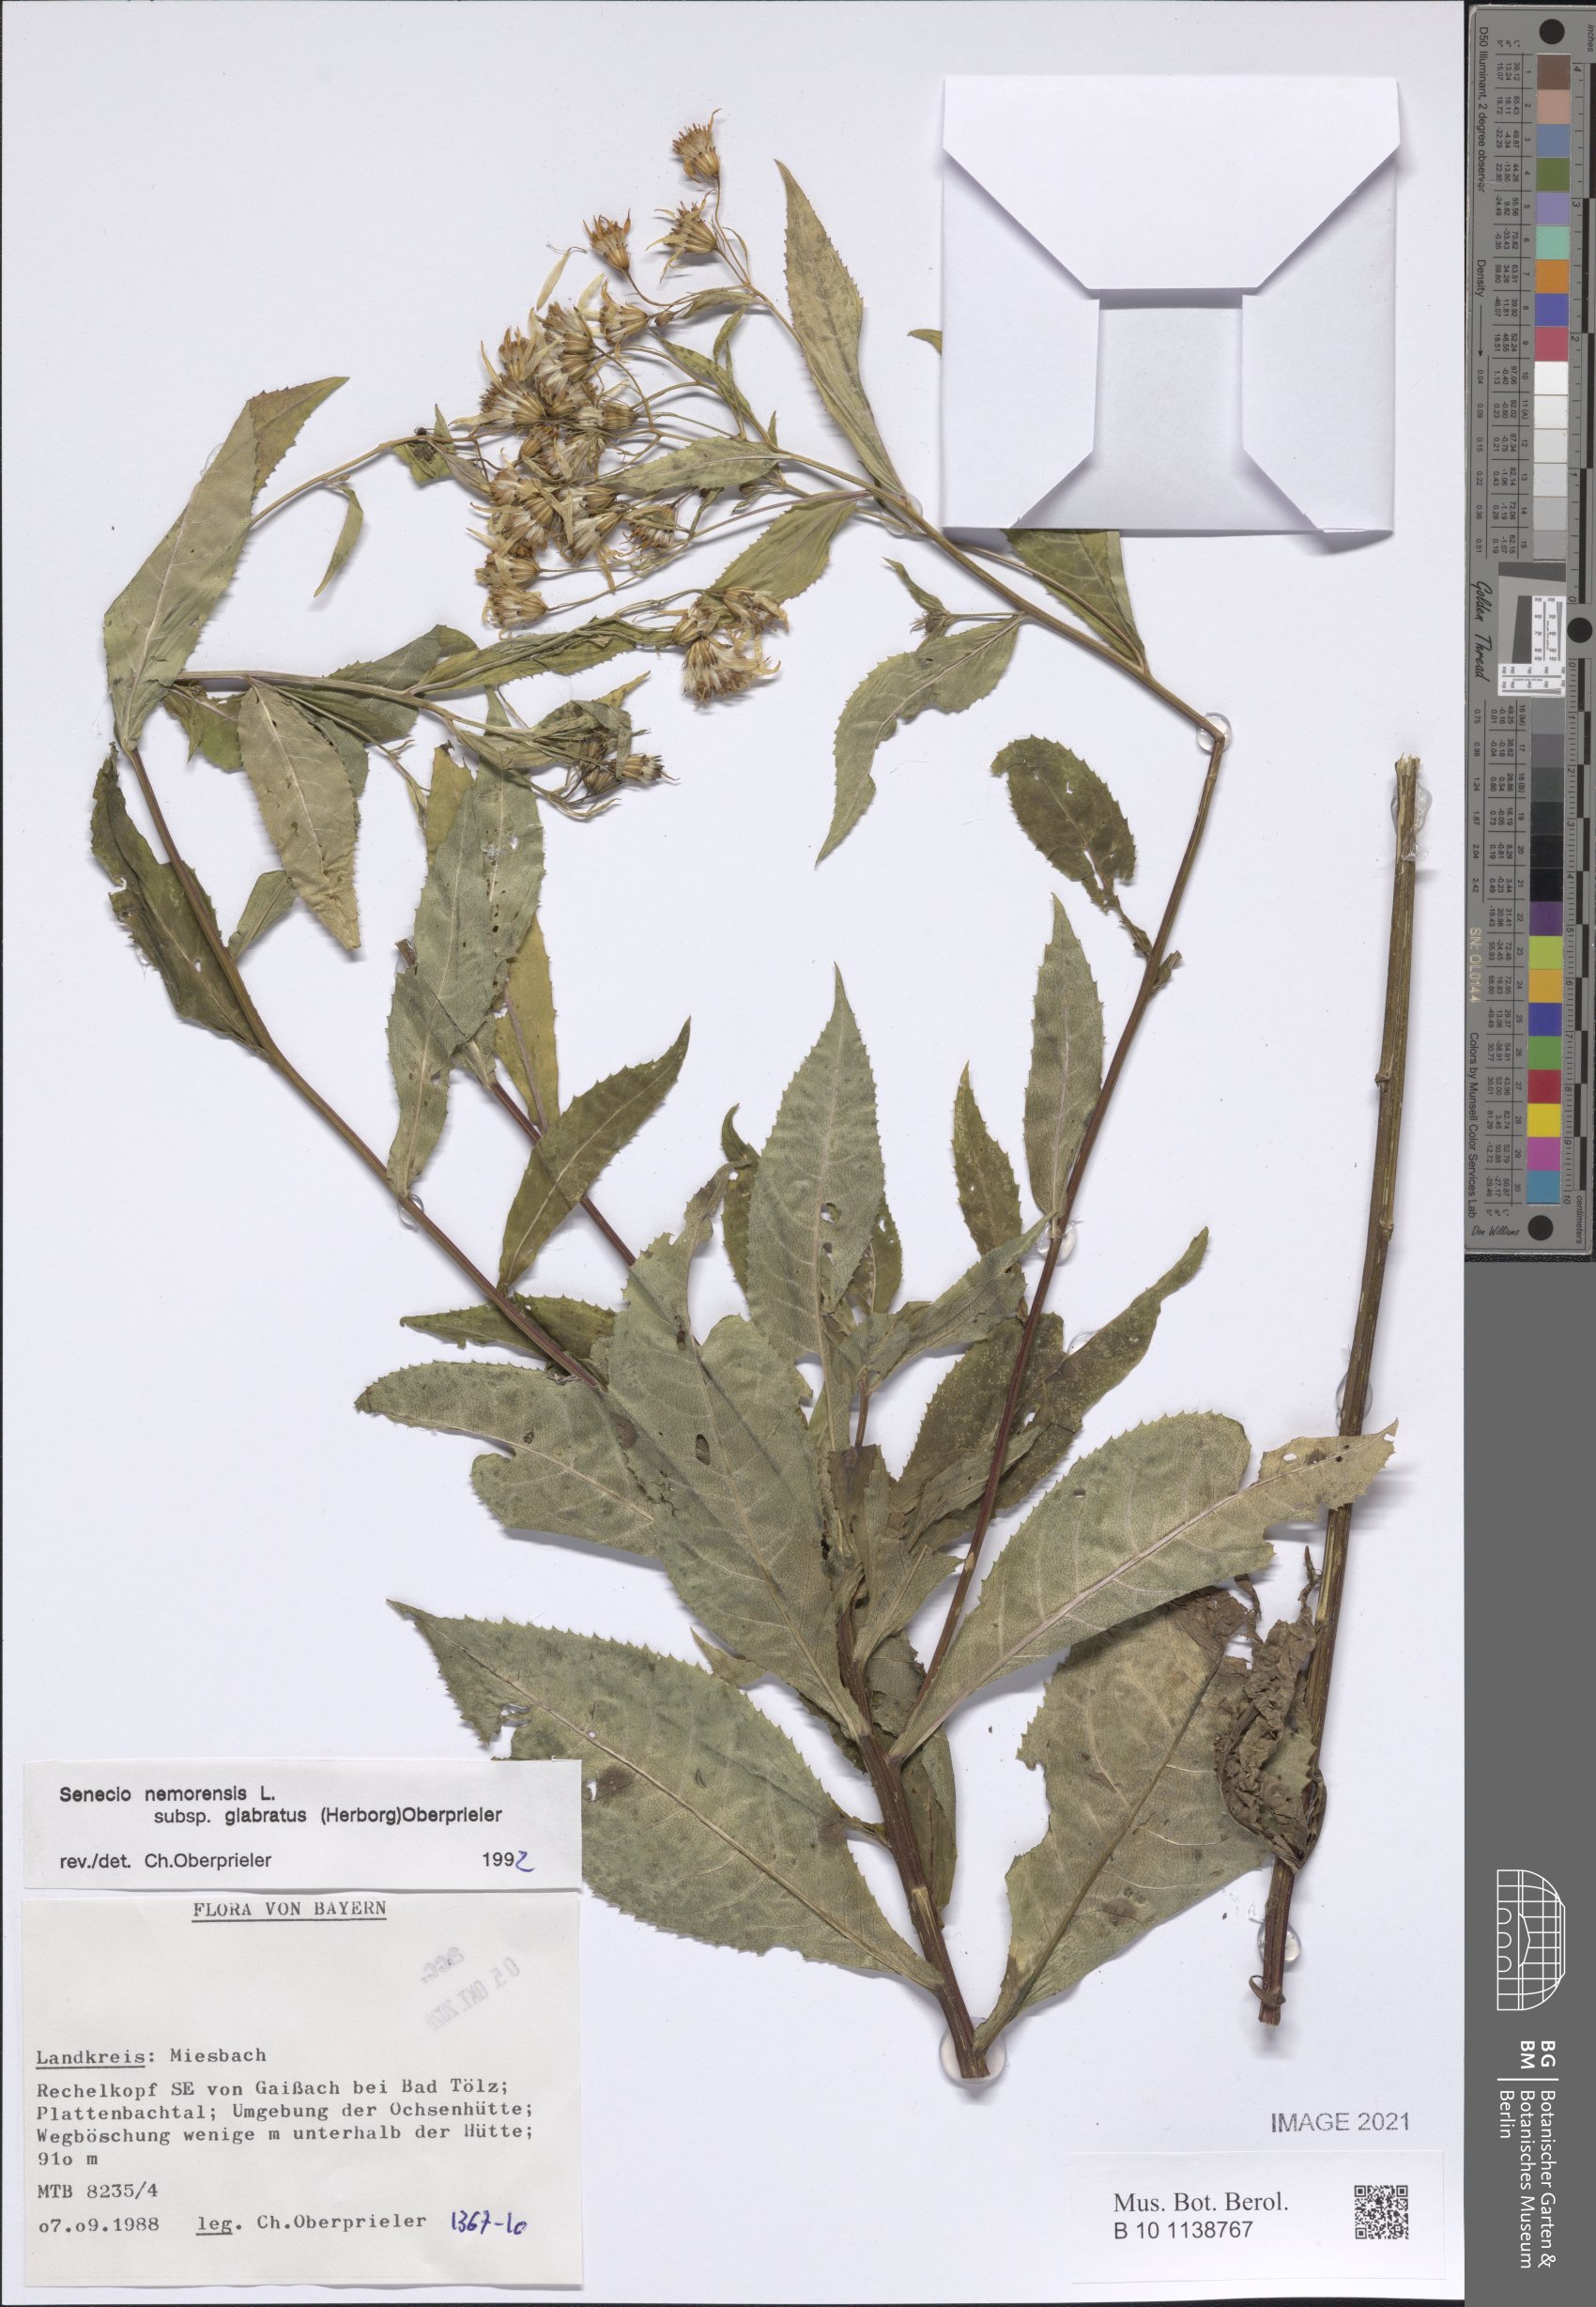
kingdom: Plantae
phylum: Tracheophyta
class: Magnoliopsida
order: Asterales
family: Asteraceae
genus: Senecio
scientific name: Senecio germanicus
